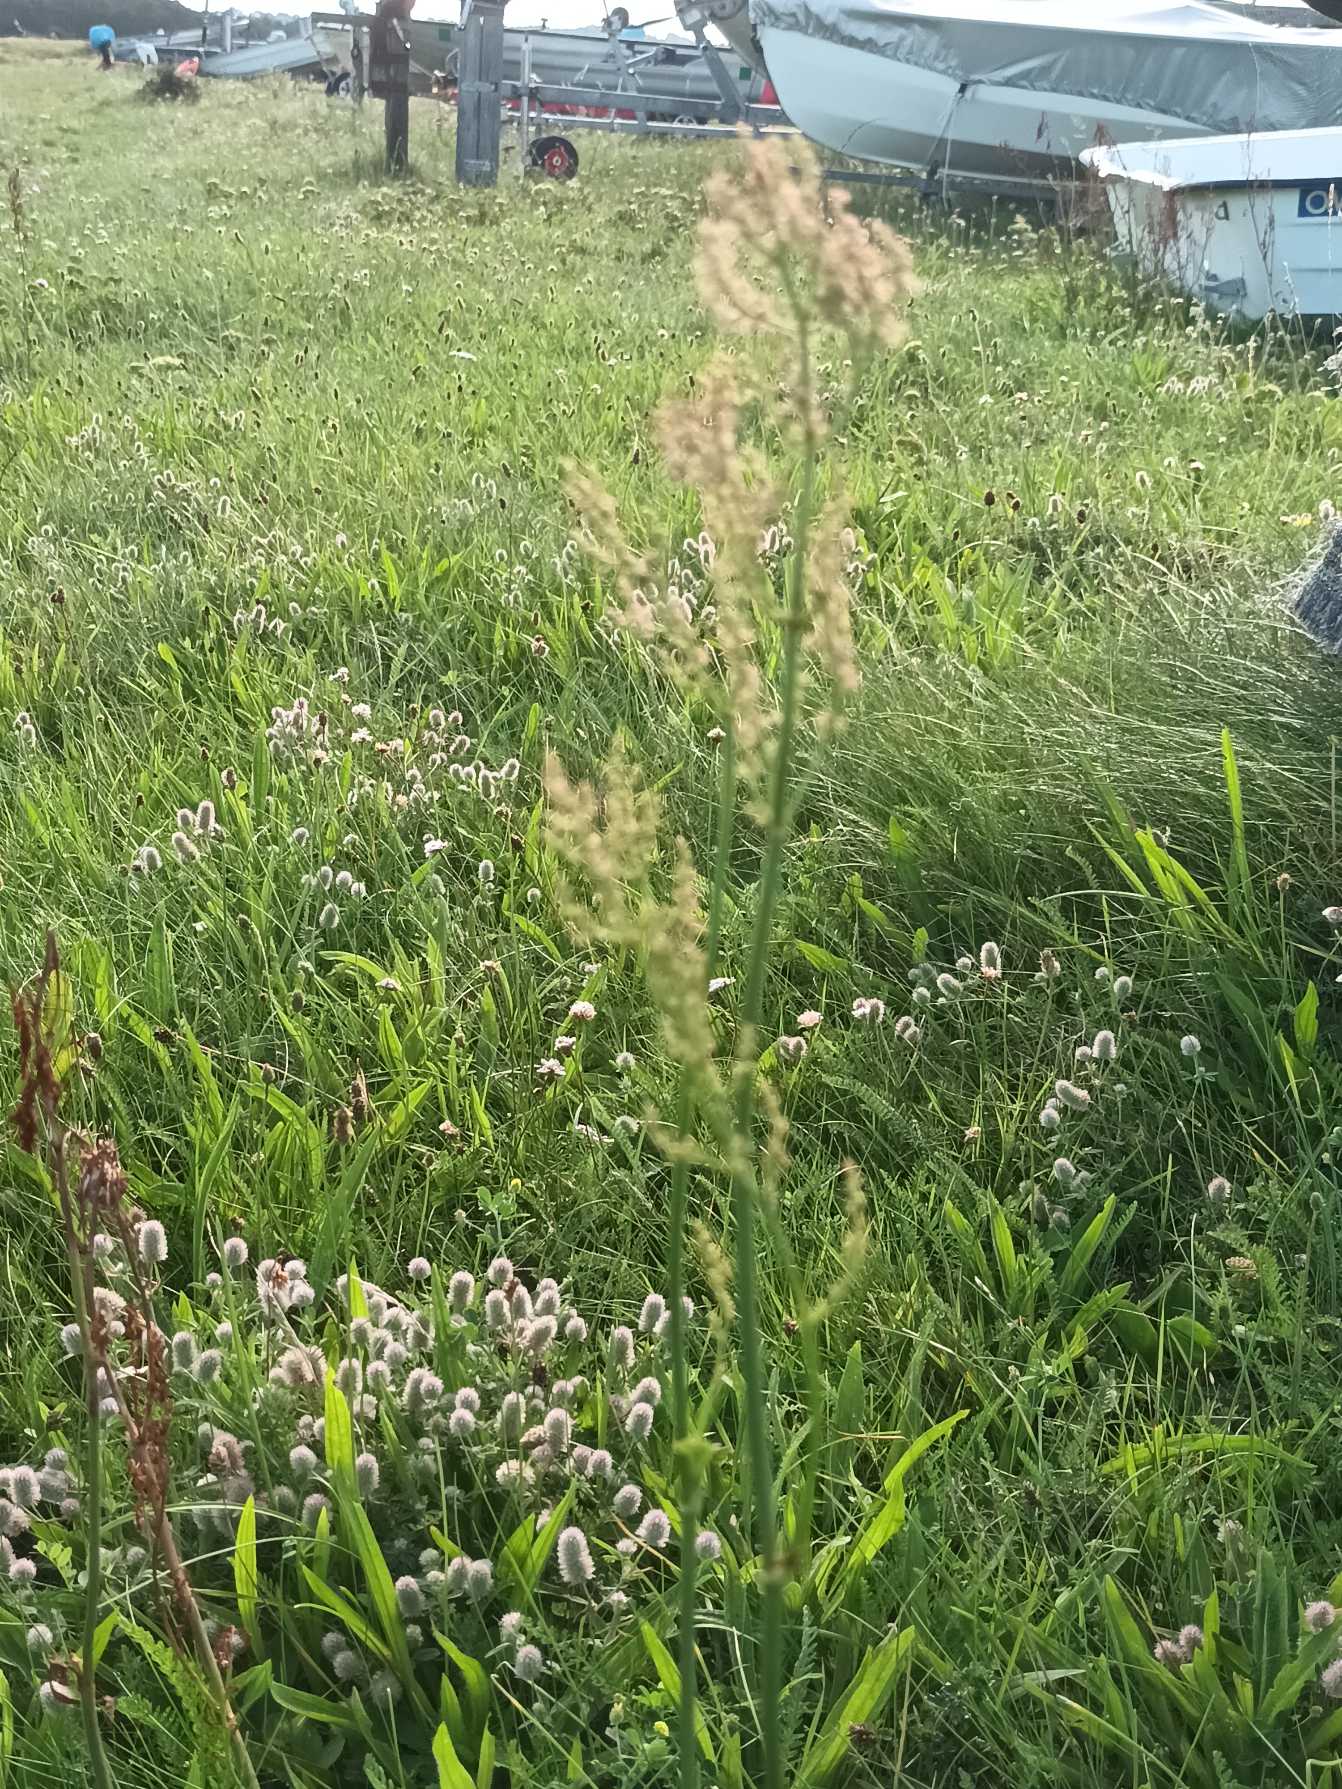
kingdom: Plantae
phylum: Tracheophyta
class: Magnoliopsida
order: Caryophyllales
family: Polygonaceae
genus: Rumex
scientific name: Rumex thyrsiflorus
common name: Dusk-syre
